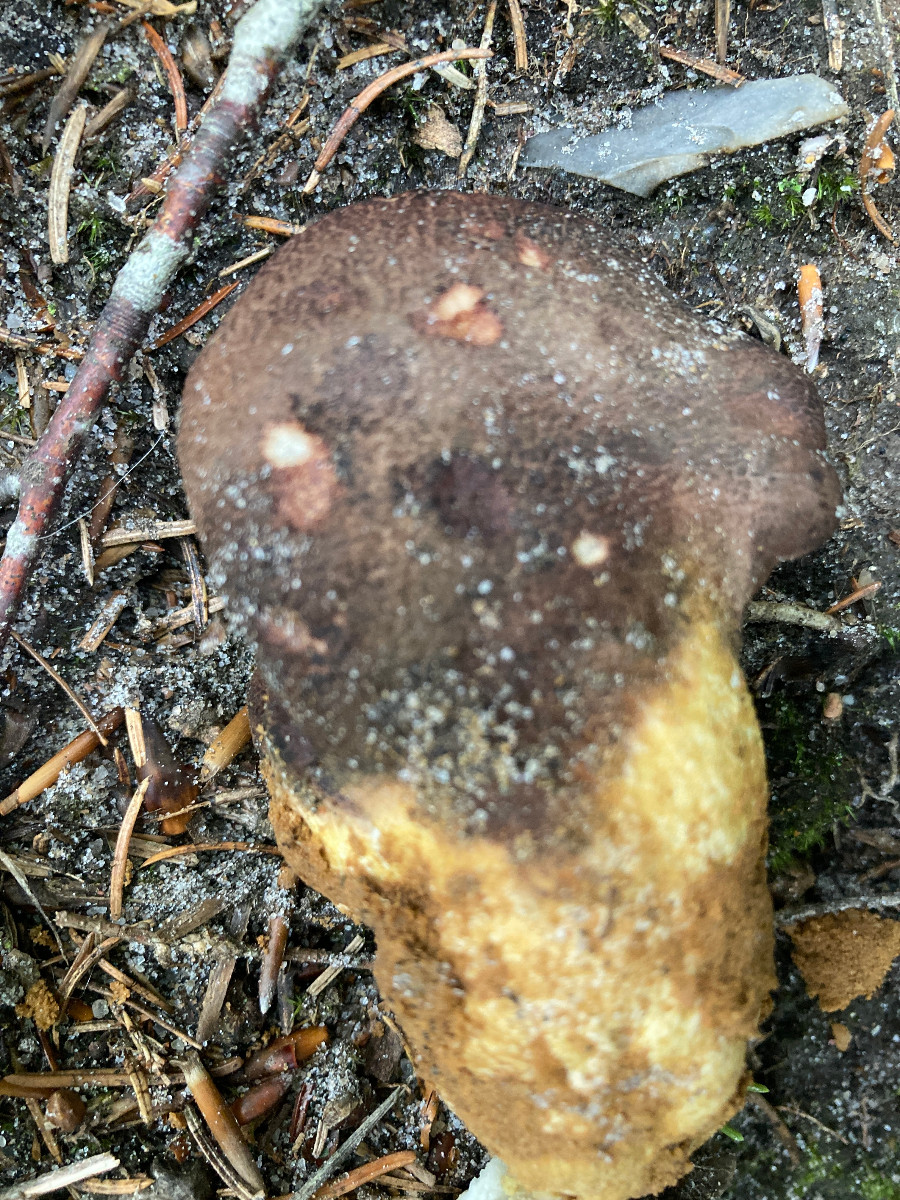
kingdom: Fungi
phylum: Basidiomycota
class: Agaricomycetes
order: Russulales
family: Albatrellaceae
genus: Scutiger
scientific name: Scutiger pes-caprae
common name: skællet fåreporesvamp
